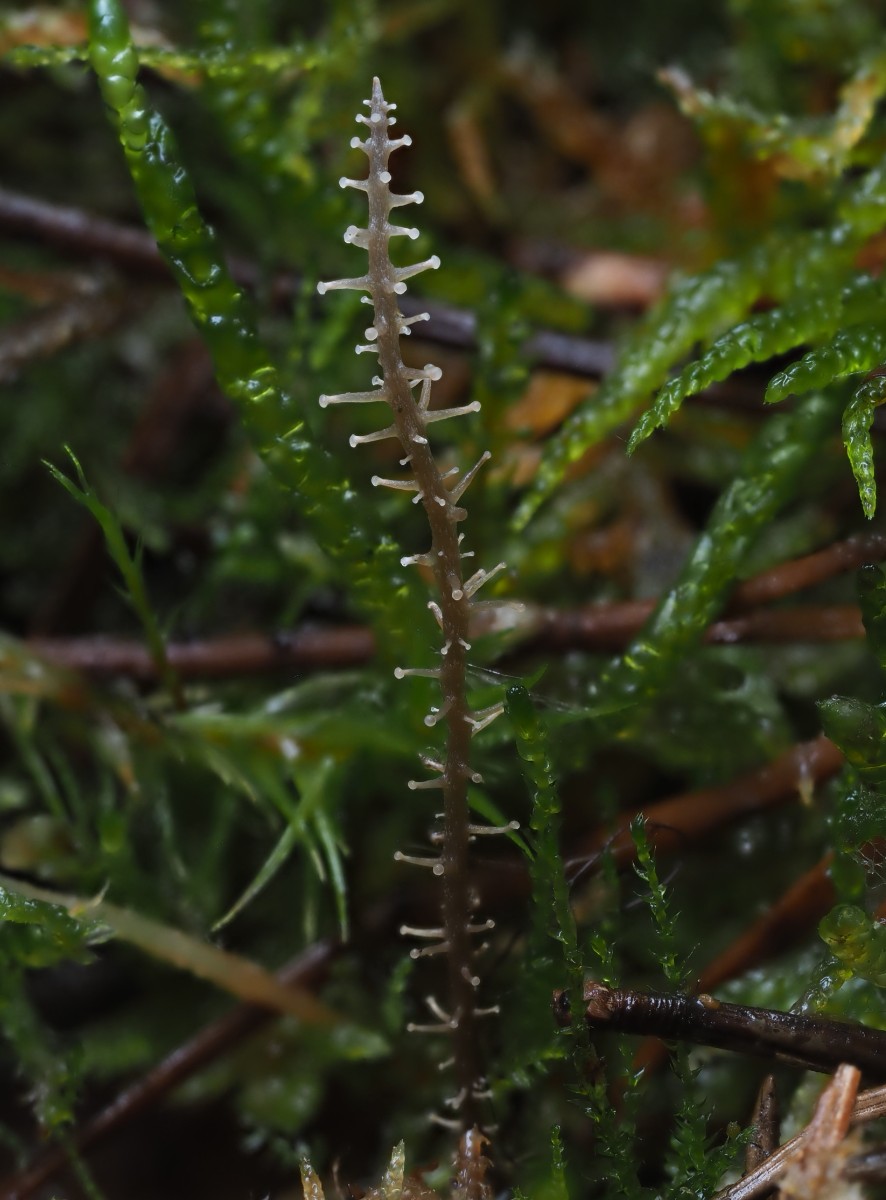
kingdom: Fungi
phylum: Basidiomycota
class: Agaricomycetes
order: Agaricales
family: Tricholomataceae
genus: Dendrocollybia
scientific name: Dendrocollybia racemosa
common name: grenet lighat
